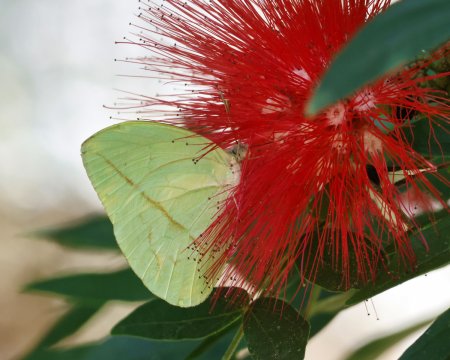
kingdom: Animalia
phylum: Arthropoda
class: Insecta
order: Lepidoptera
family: Pieridae
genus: Rhabdodryas
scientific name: Rhabdodryas trite
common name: Straight-lined Sulphur
